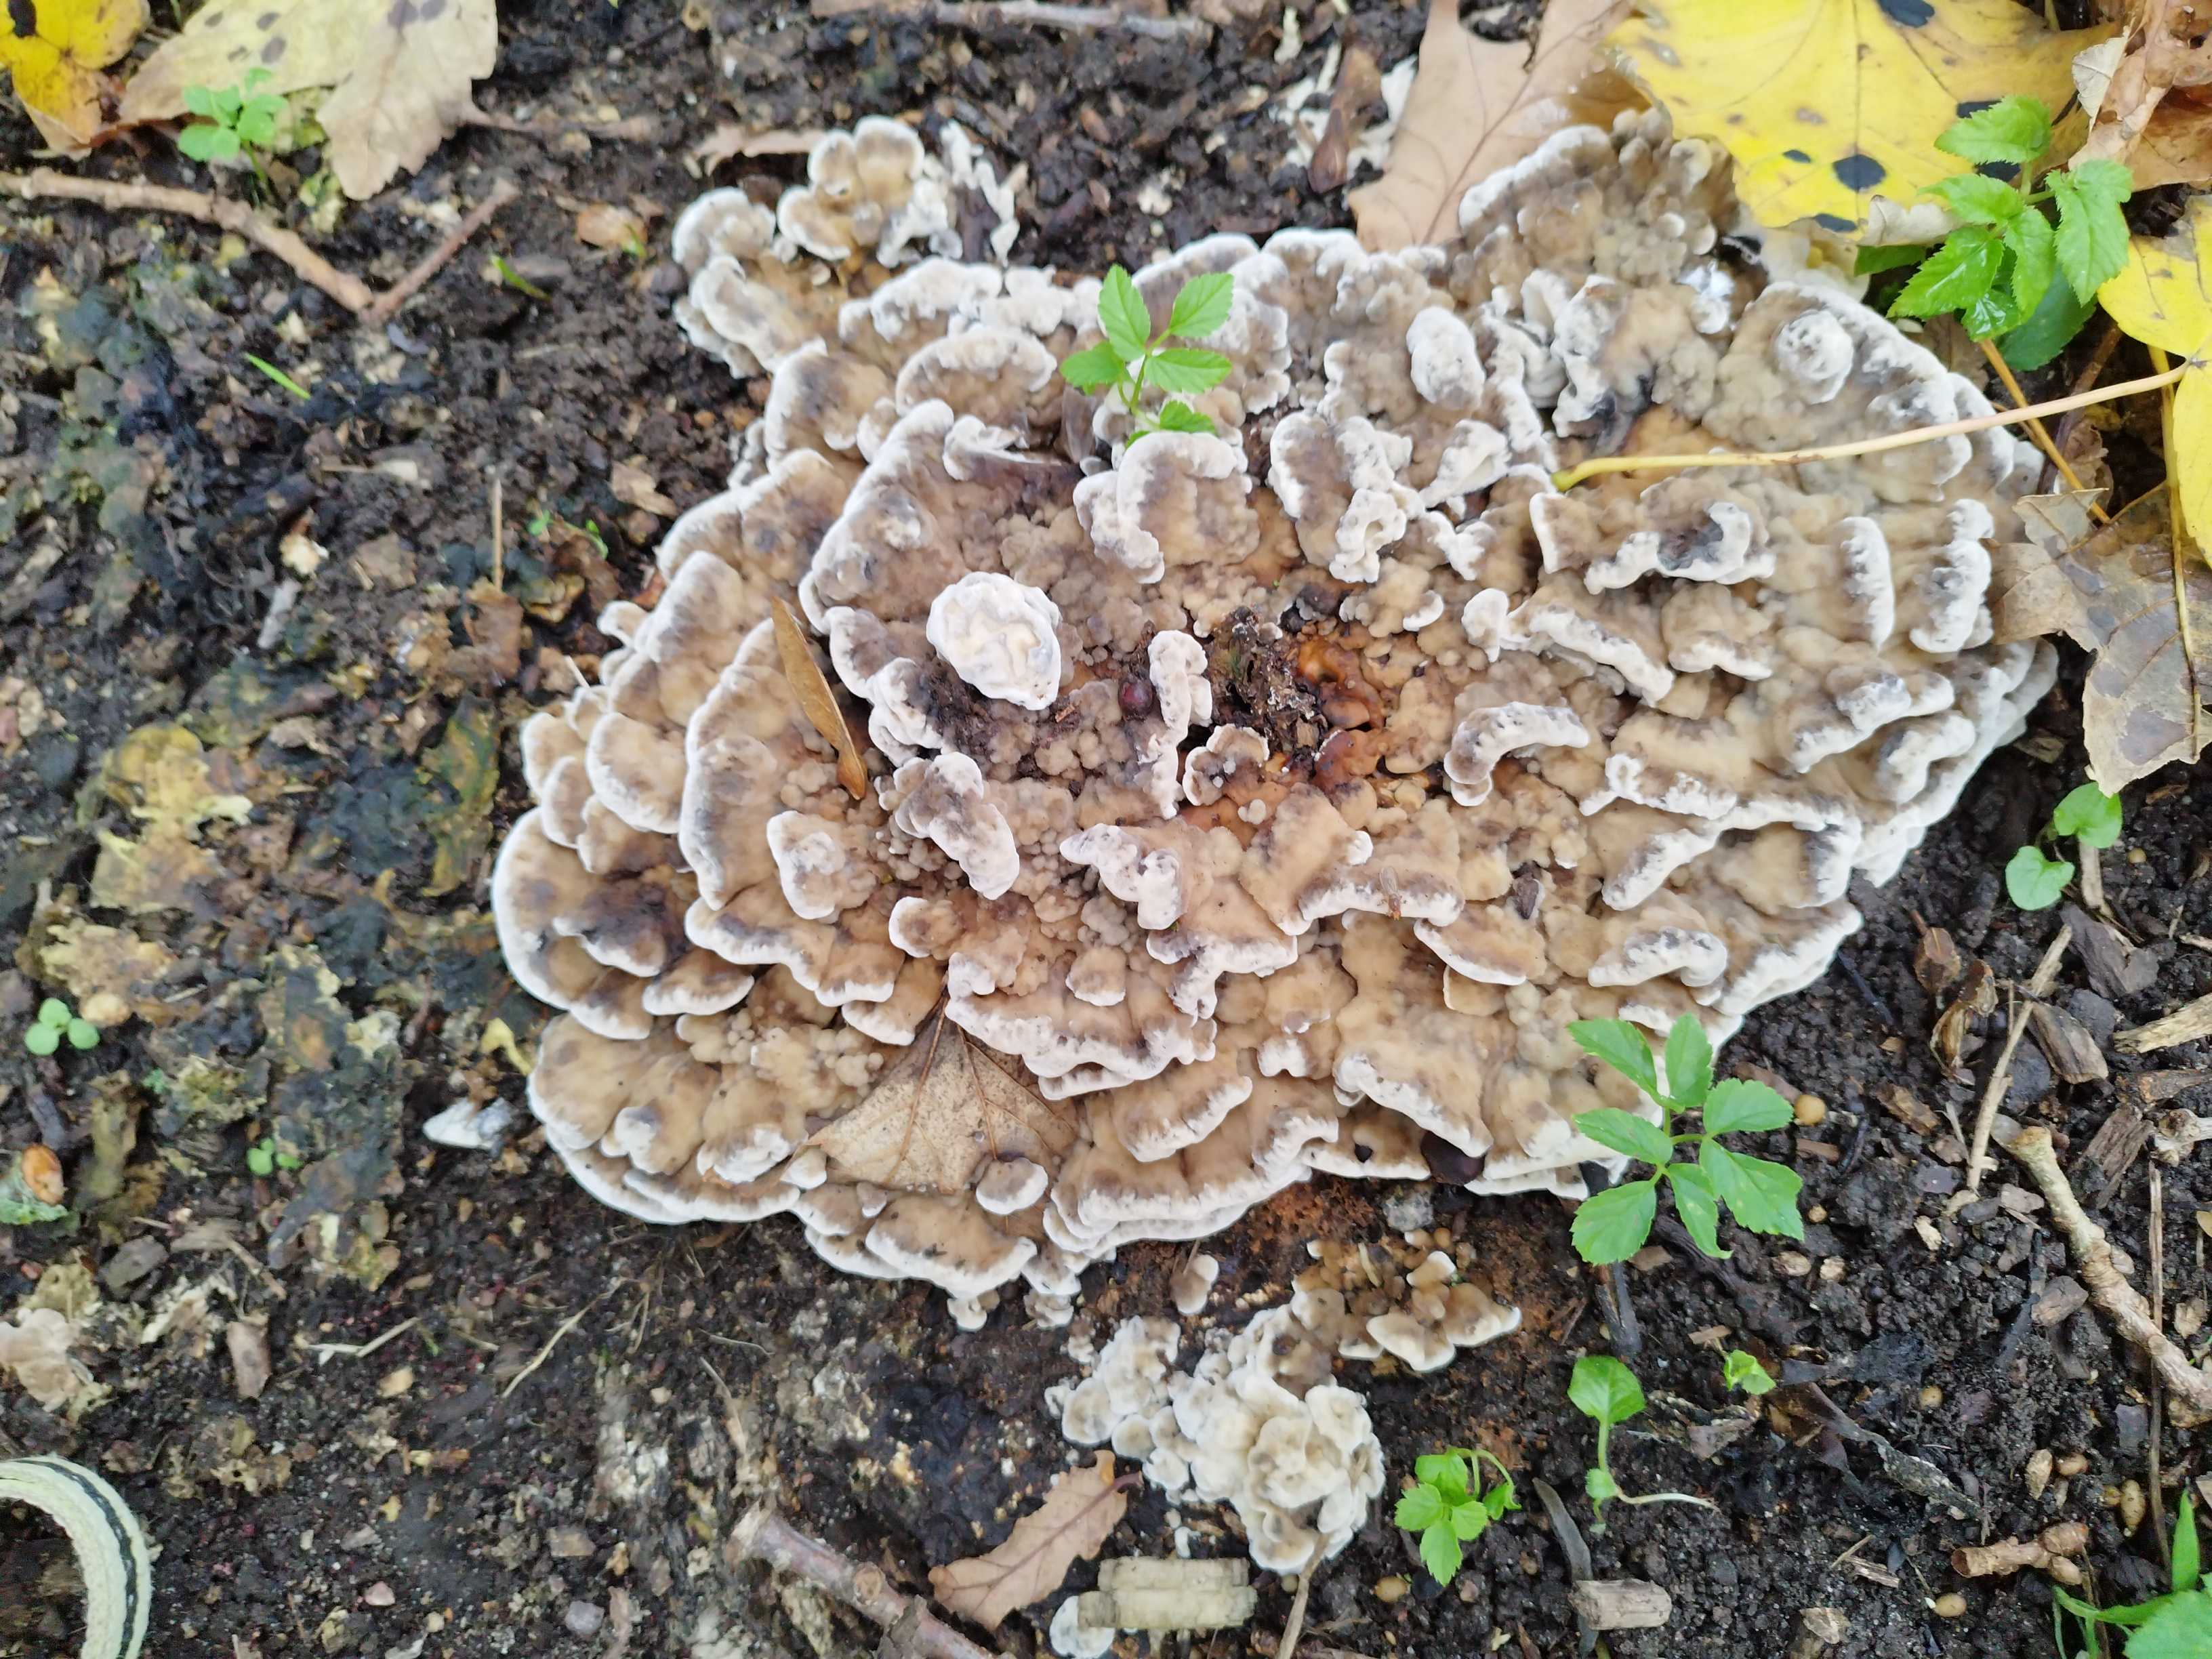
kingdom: Fungi
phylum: Basidiomycota
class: Agaricomycetes
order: Polyporales
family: Phanerochaetaceae
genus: Bjerkandera
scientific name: Bjerkandera adusta
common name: sveden sodporesvamp
